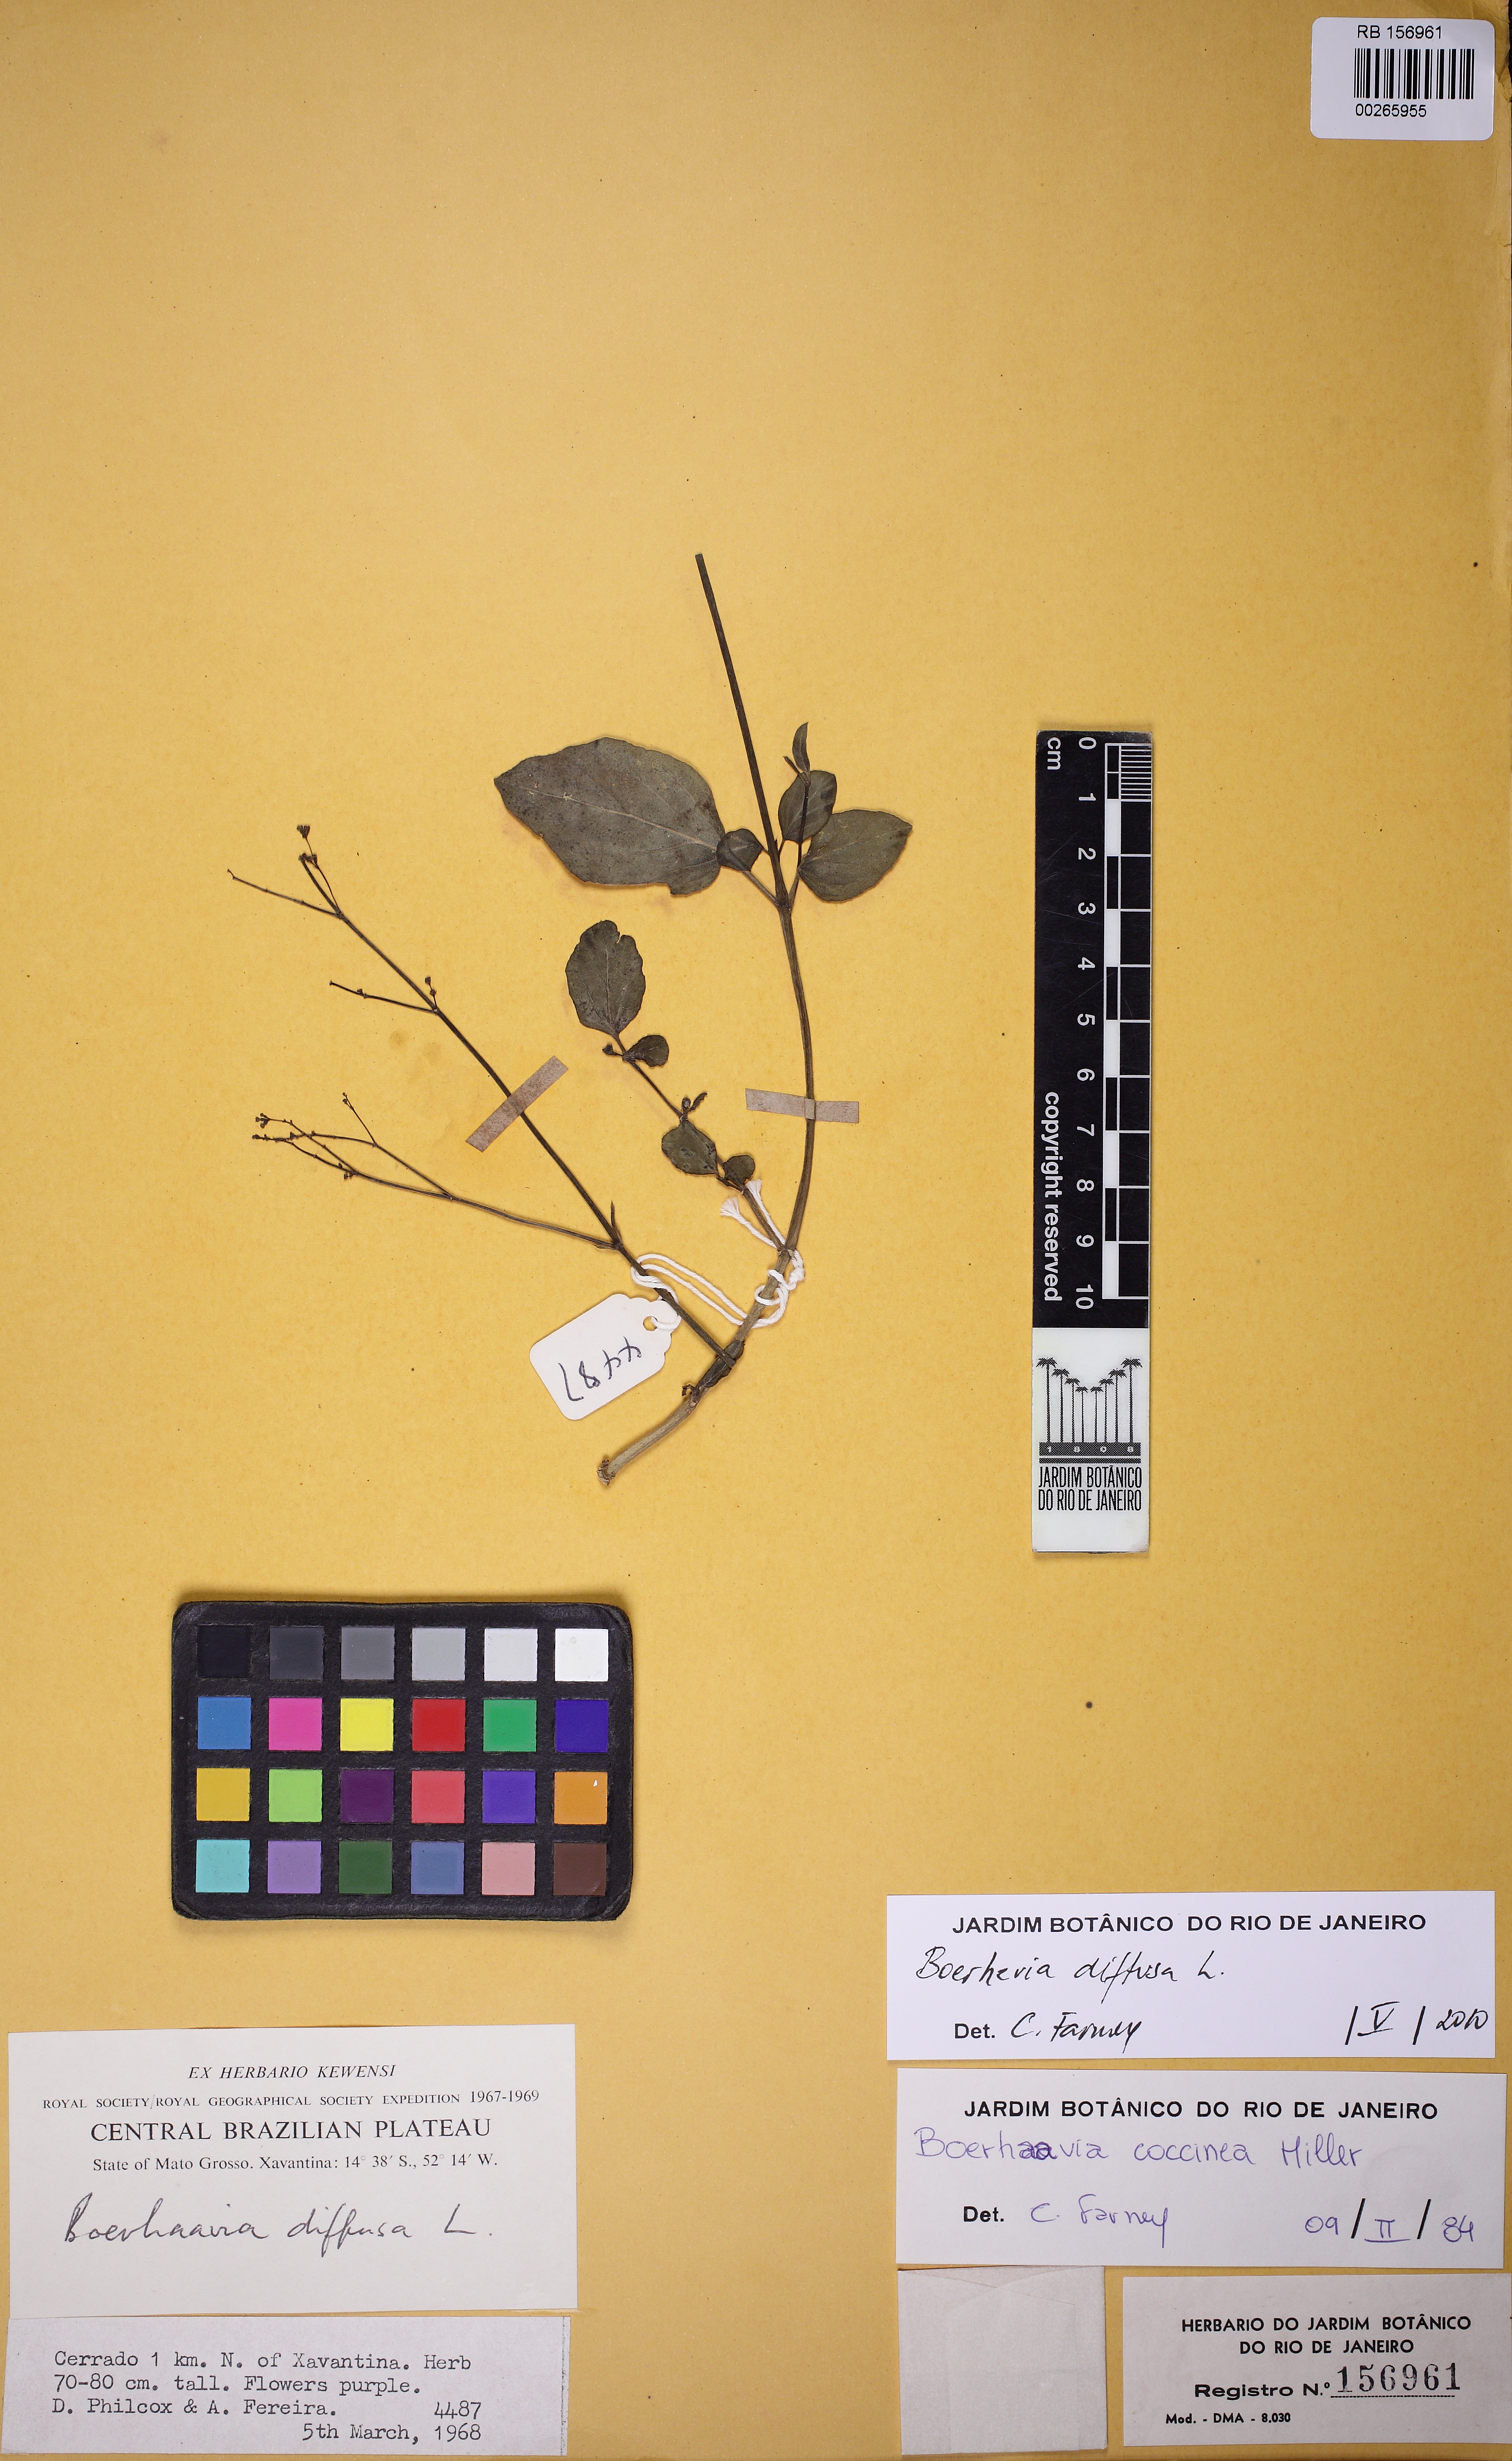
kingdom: Plantae
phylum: Tracheophyta
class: Magnoliopsida
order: Caryophyllales
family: Nyctaginaceae
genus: Boerhavia
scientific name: Boerhavia diffusa
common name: Red spiderling
